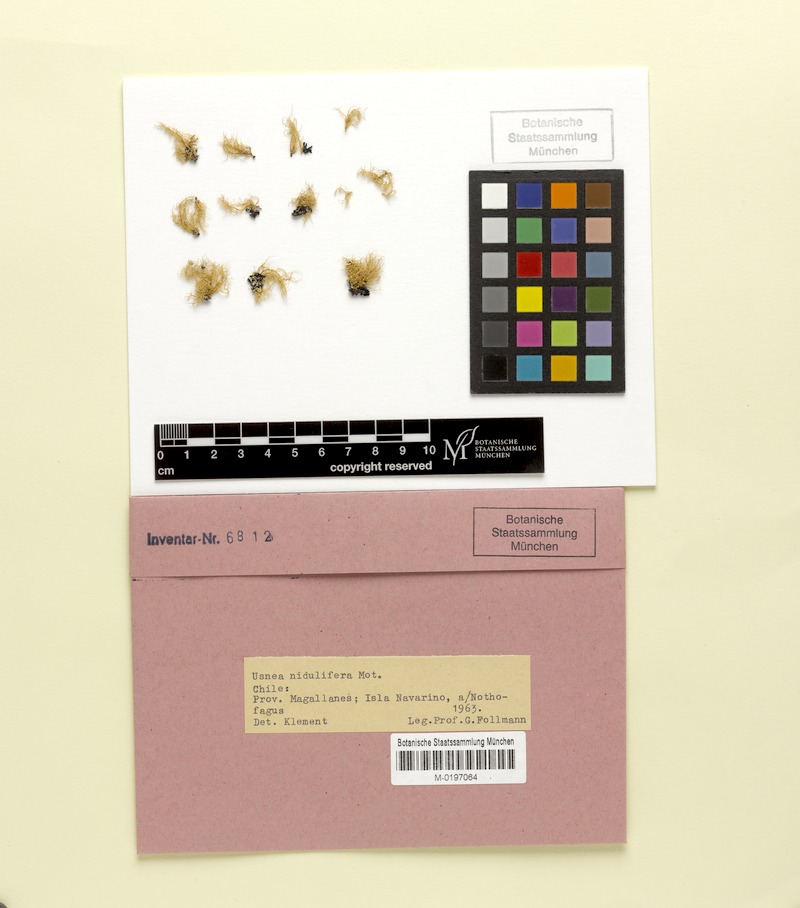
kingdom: Fungi
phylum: Ascomycota
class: Lecanoromycetes
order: Lecanorales
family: Parmeliaceae
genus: Usnea
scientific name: Usnea nidulifera
